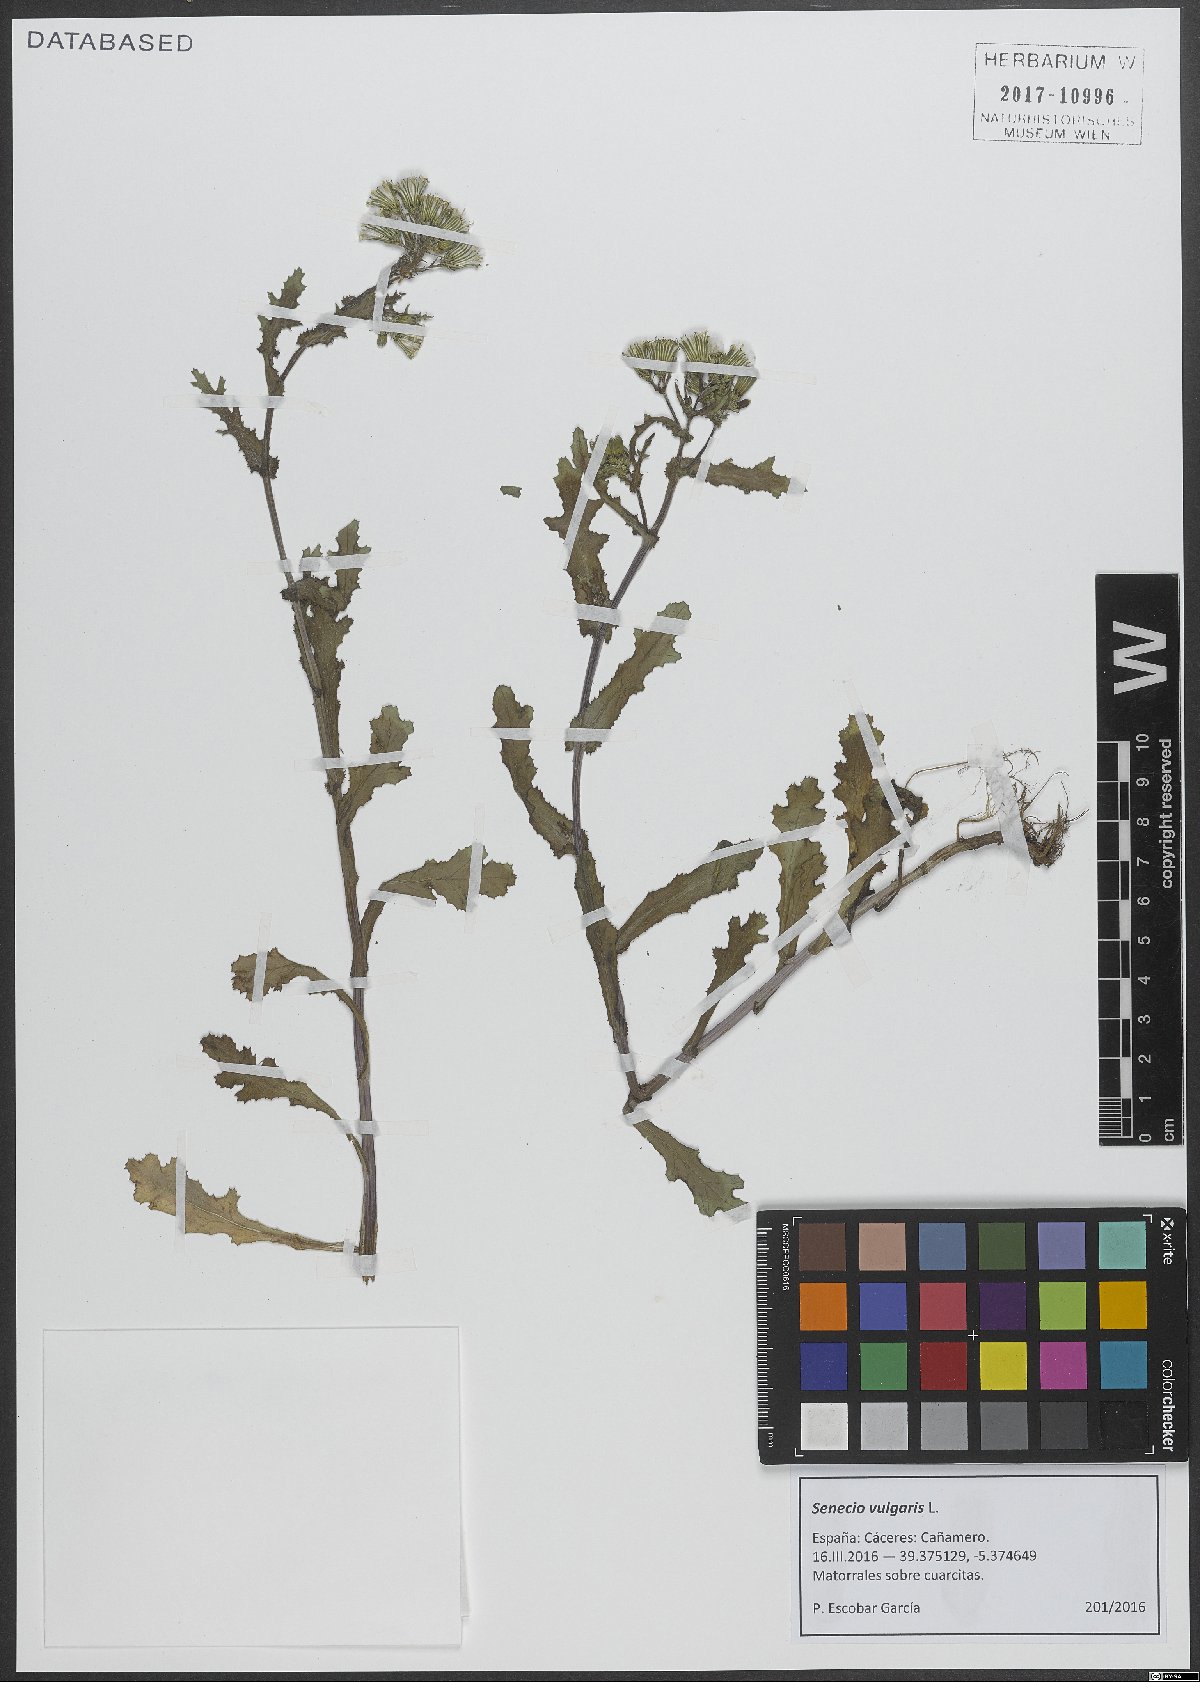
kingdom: Plantae
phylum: Tracheophyta
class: Magnoliopsida
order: Asterales
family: Asteraceae
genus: Senecio
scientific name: Senecio vulgaris
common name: Old-man-in-the-spring
